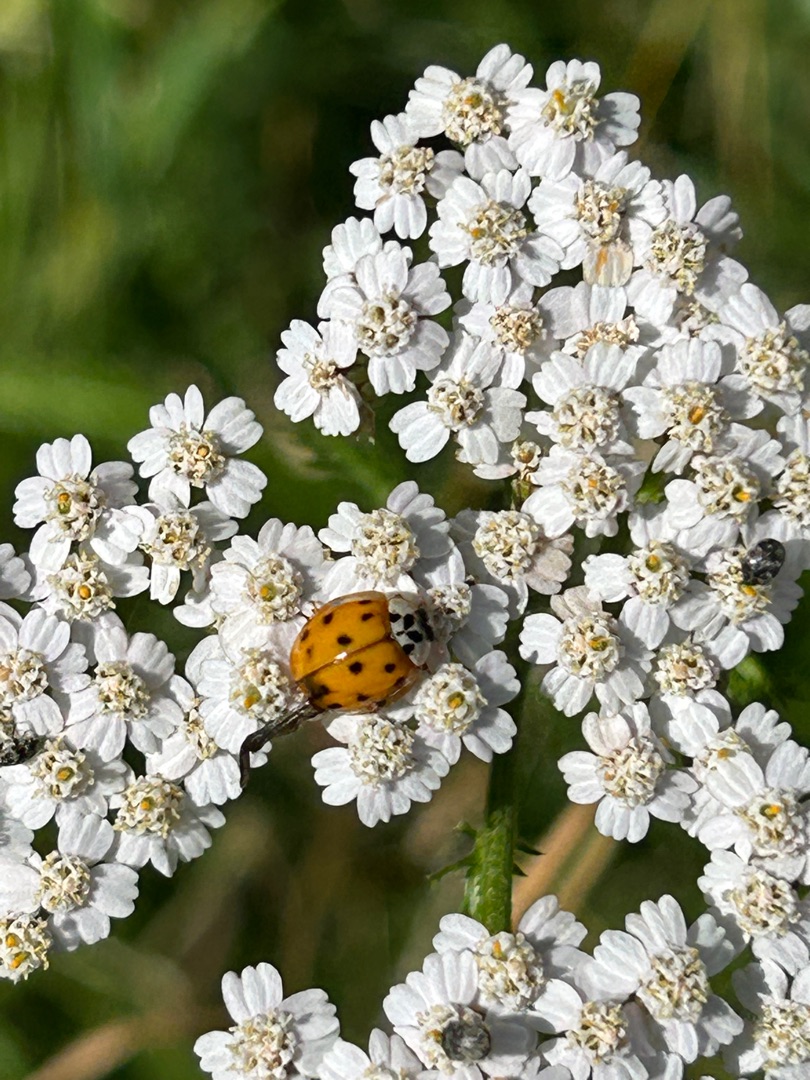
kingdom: Animalia
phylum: Arthropoda
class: Insecta
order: Coleoptera
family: Coccinellidae
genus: Harmonia
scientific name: Harmonia axyridis
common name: Harlekinmariehøne
